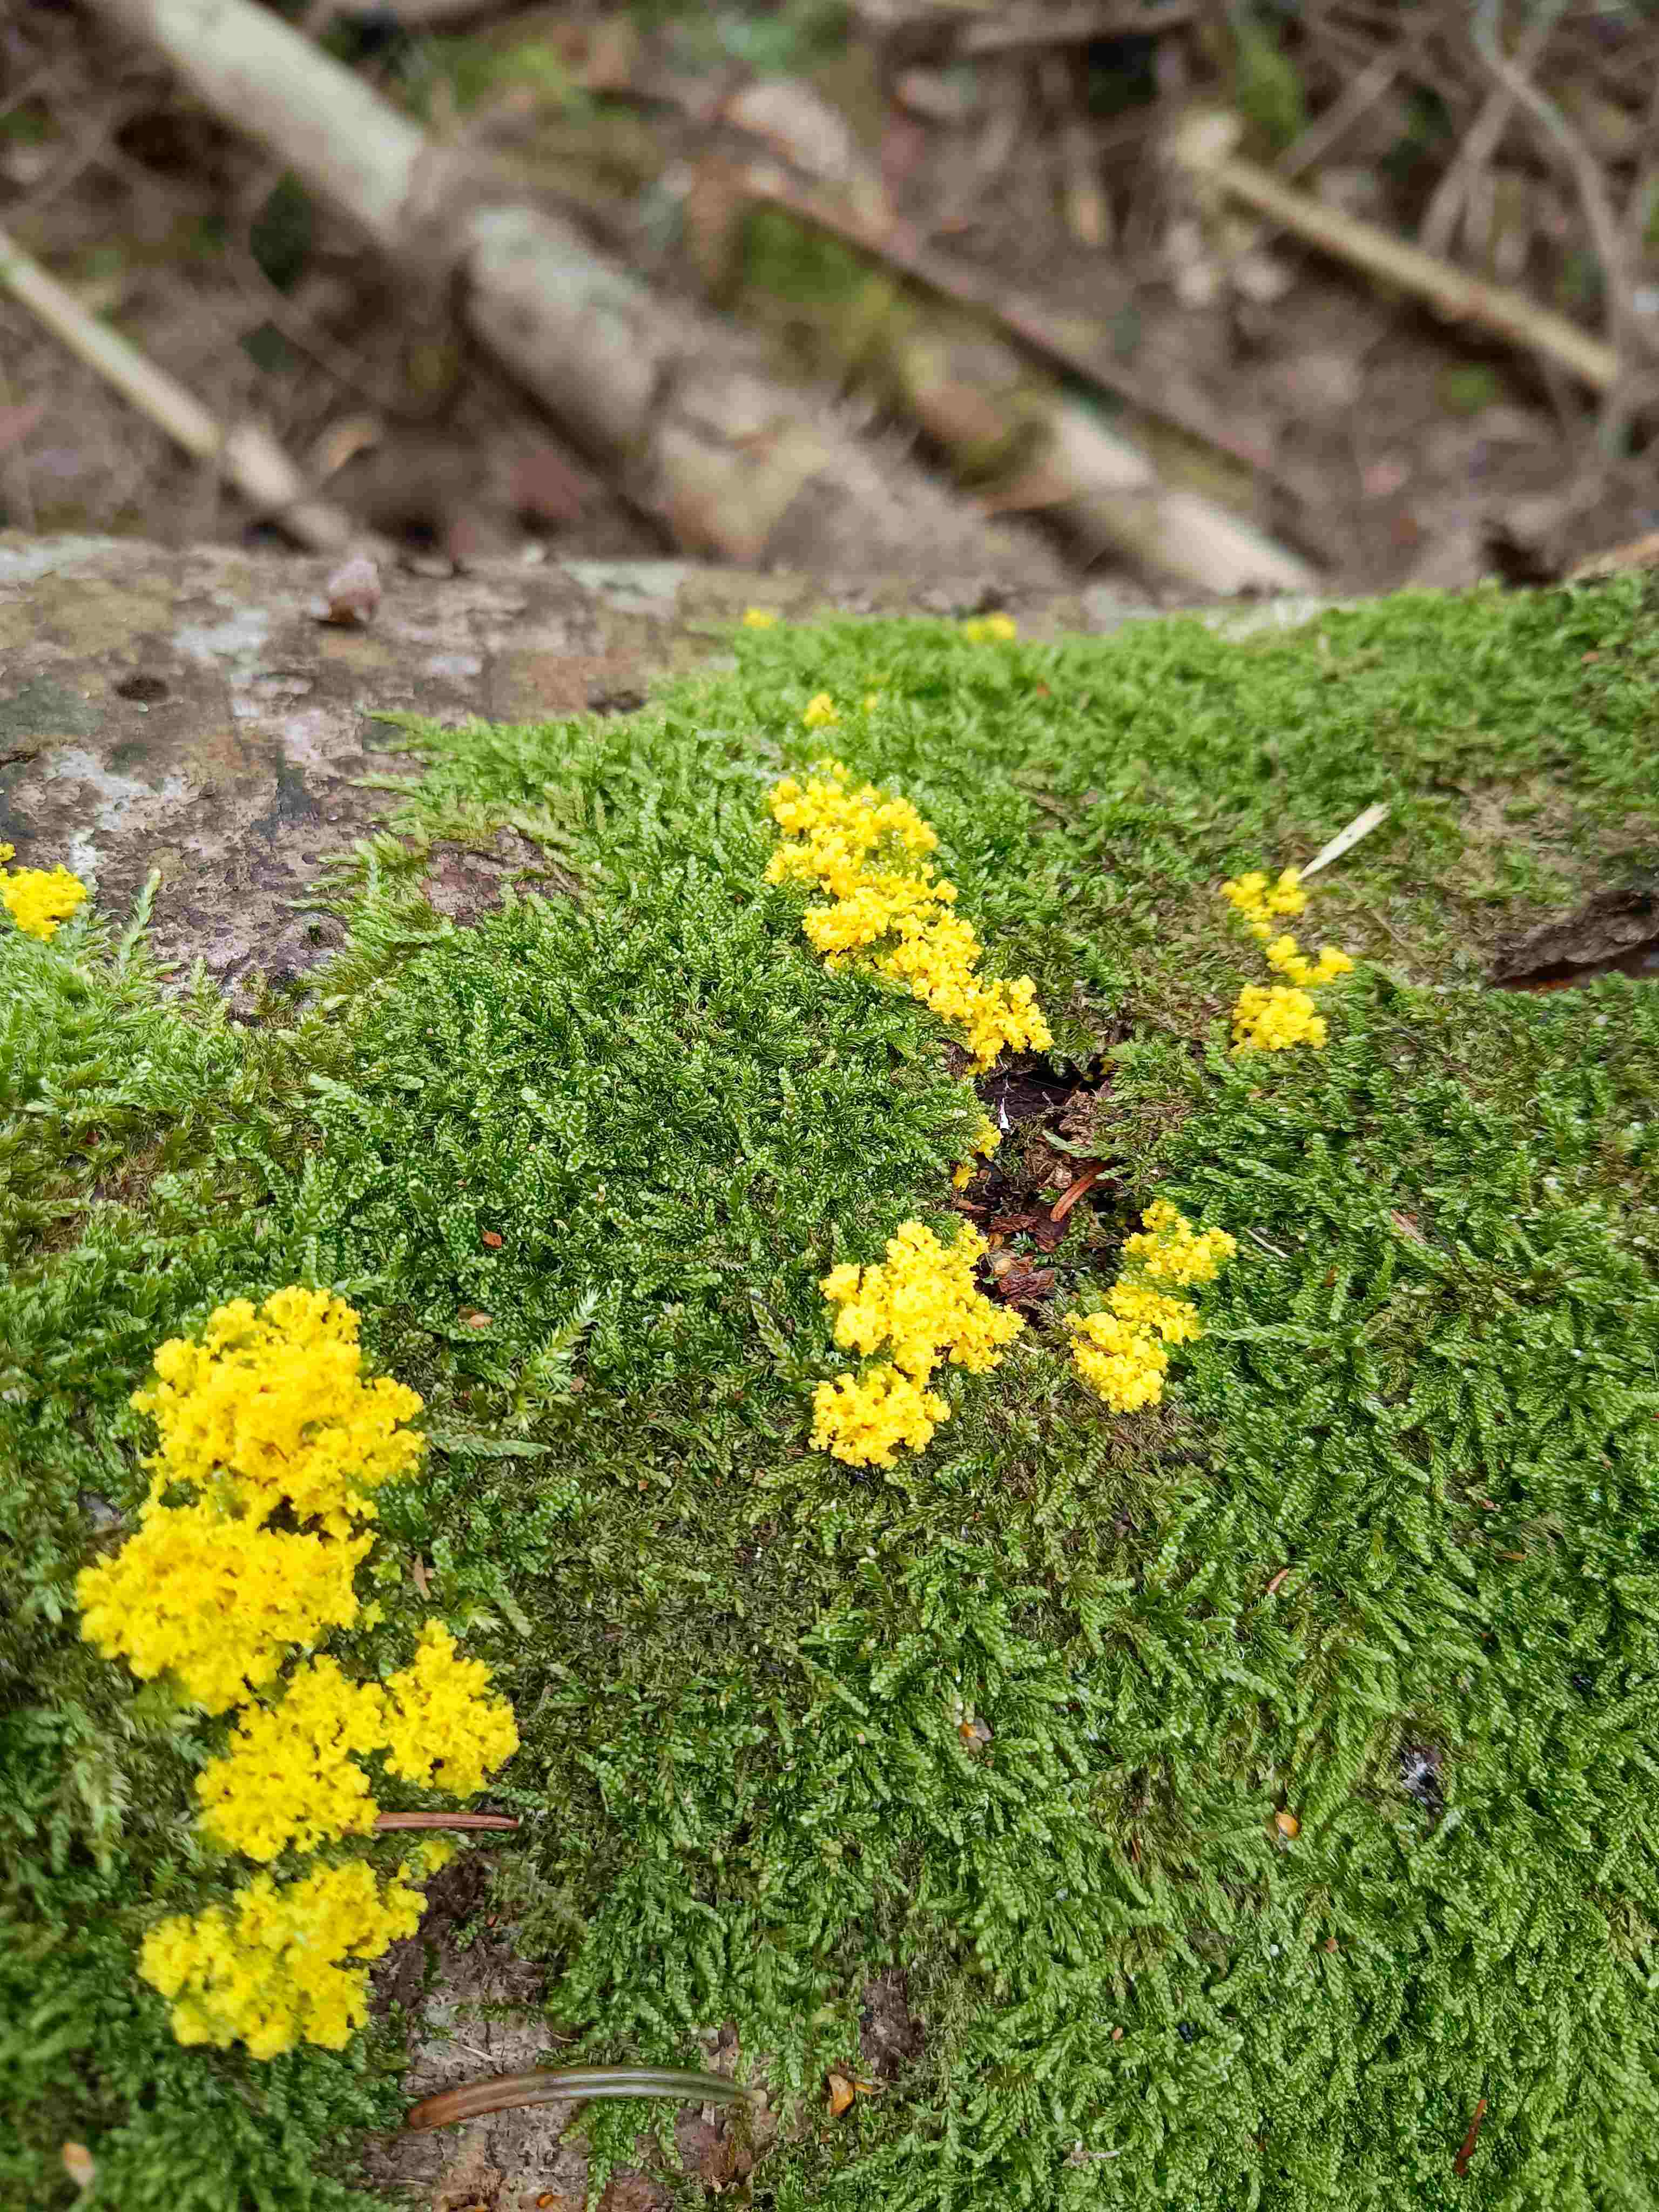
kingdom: Protozoa
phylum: Mycetozoa
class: Myxomycetes
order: Physarales
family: Physaraceae
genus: Fuligo
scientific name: Fuligo septica
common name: gul troldsmør
